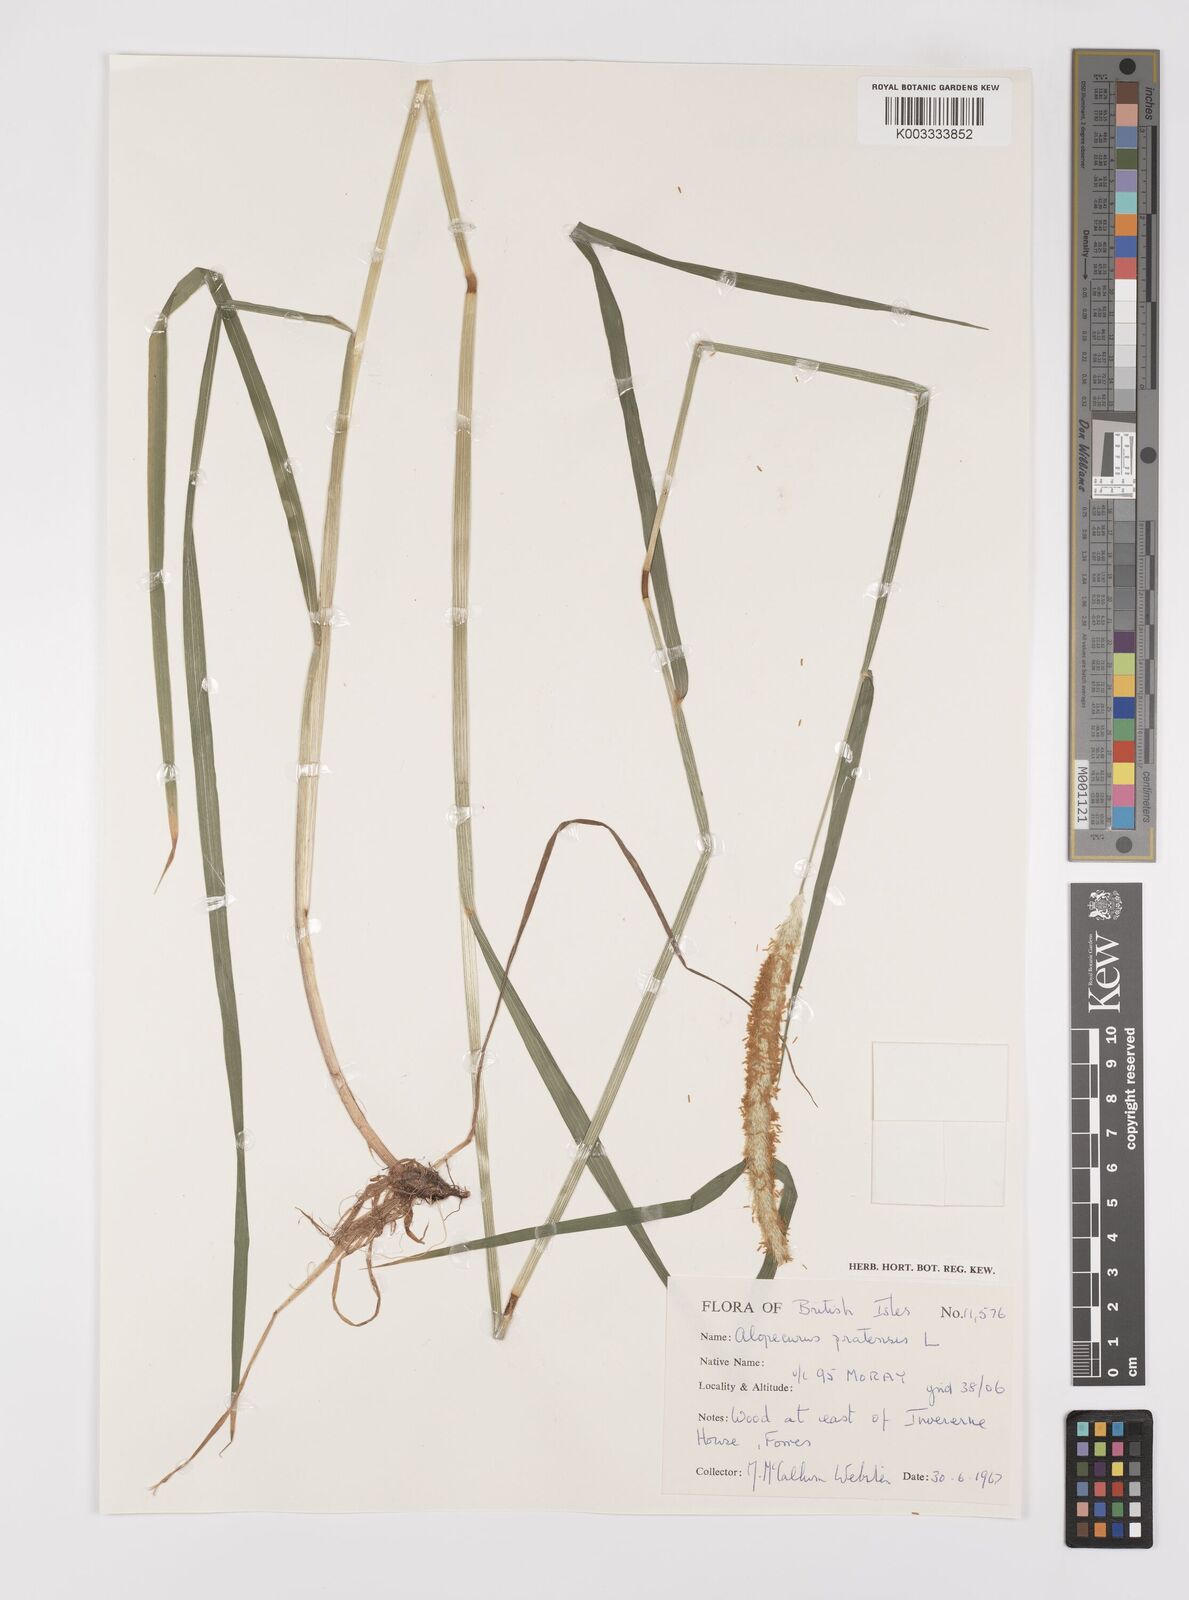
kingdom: Plantae
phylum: Tracheophyta
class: Liliopsida
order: Poales
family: Poaceae
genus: Alopecurus
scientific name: Alopecurus pratensis
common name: Meadow foxtail
